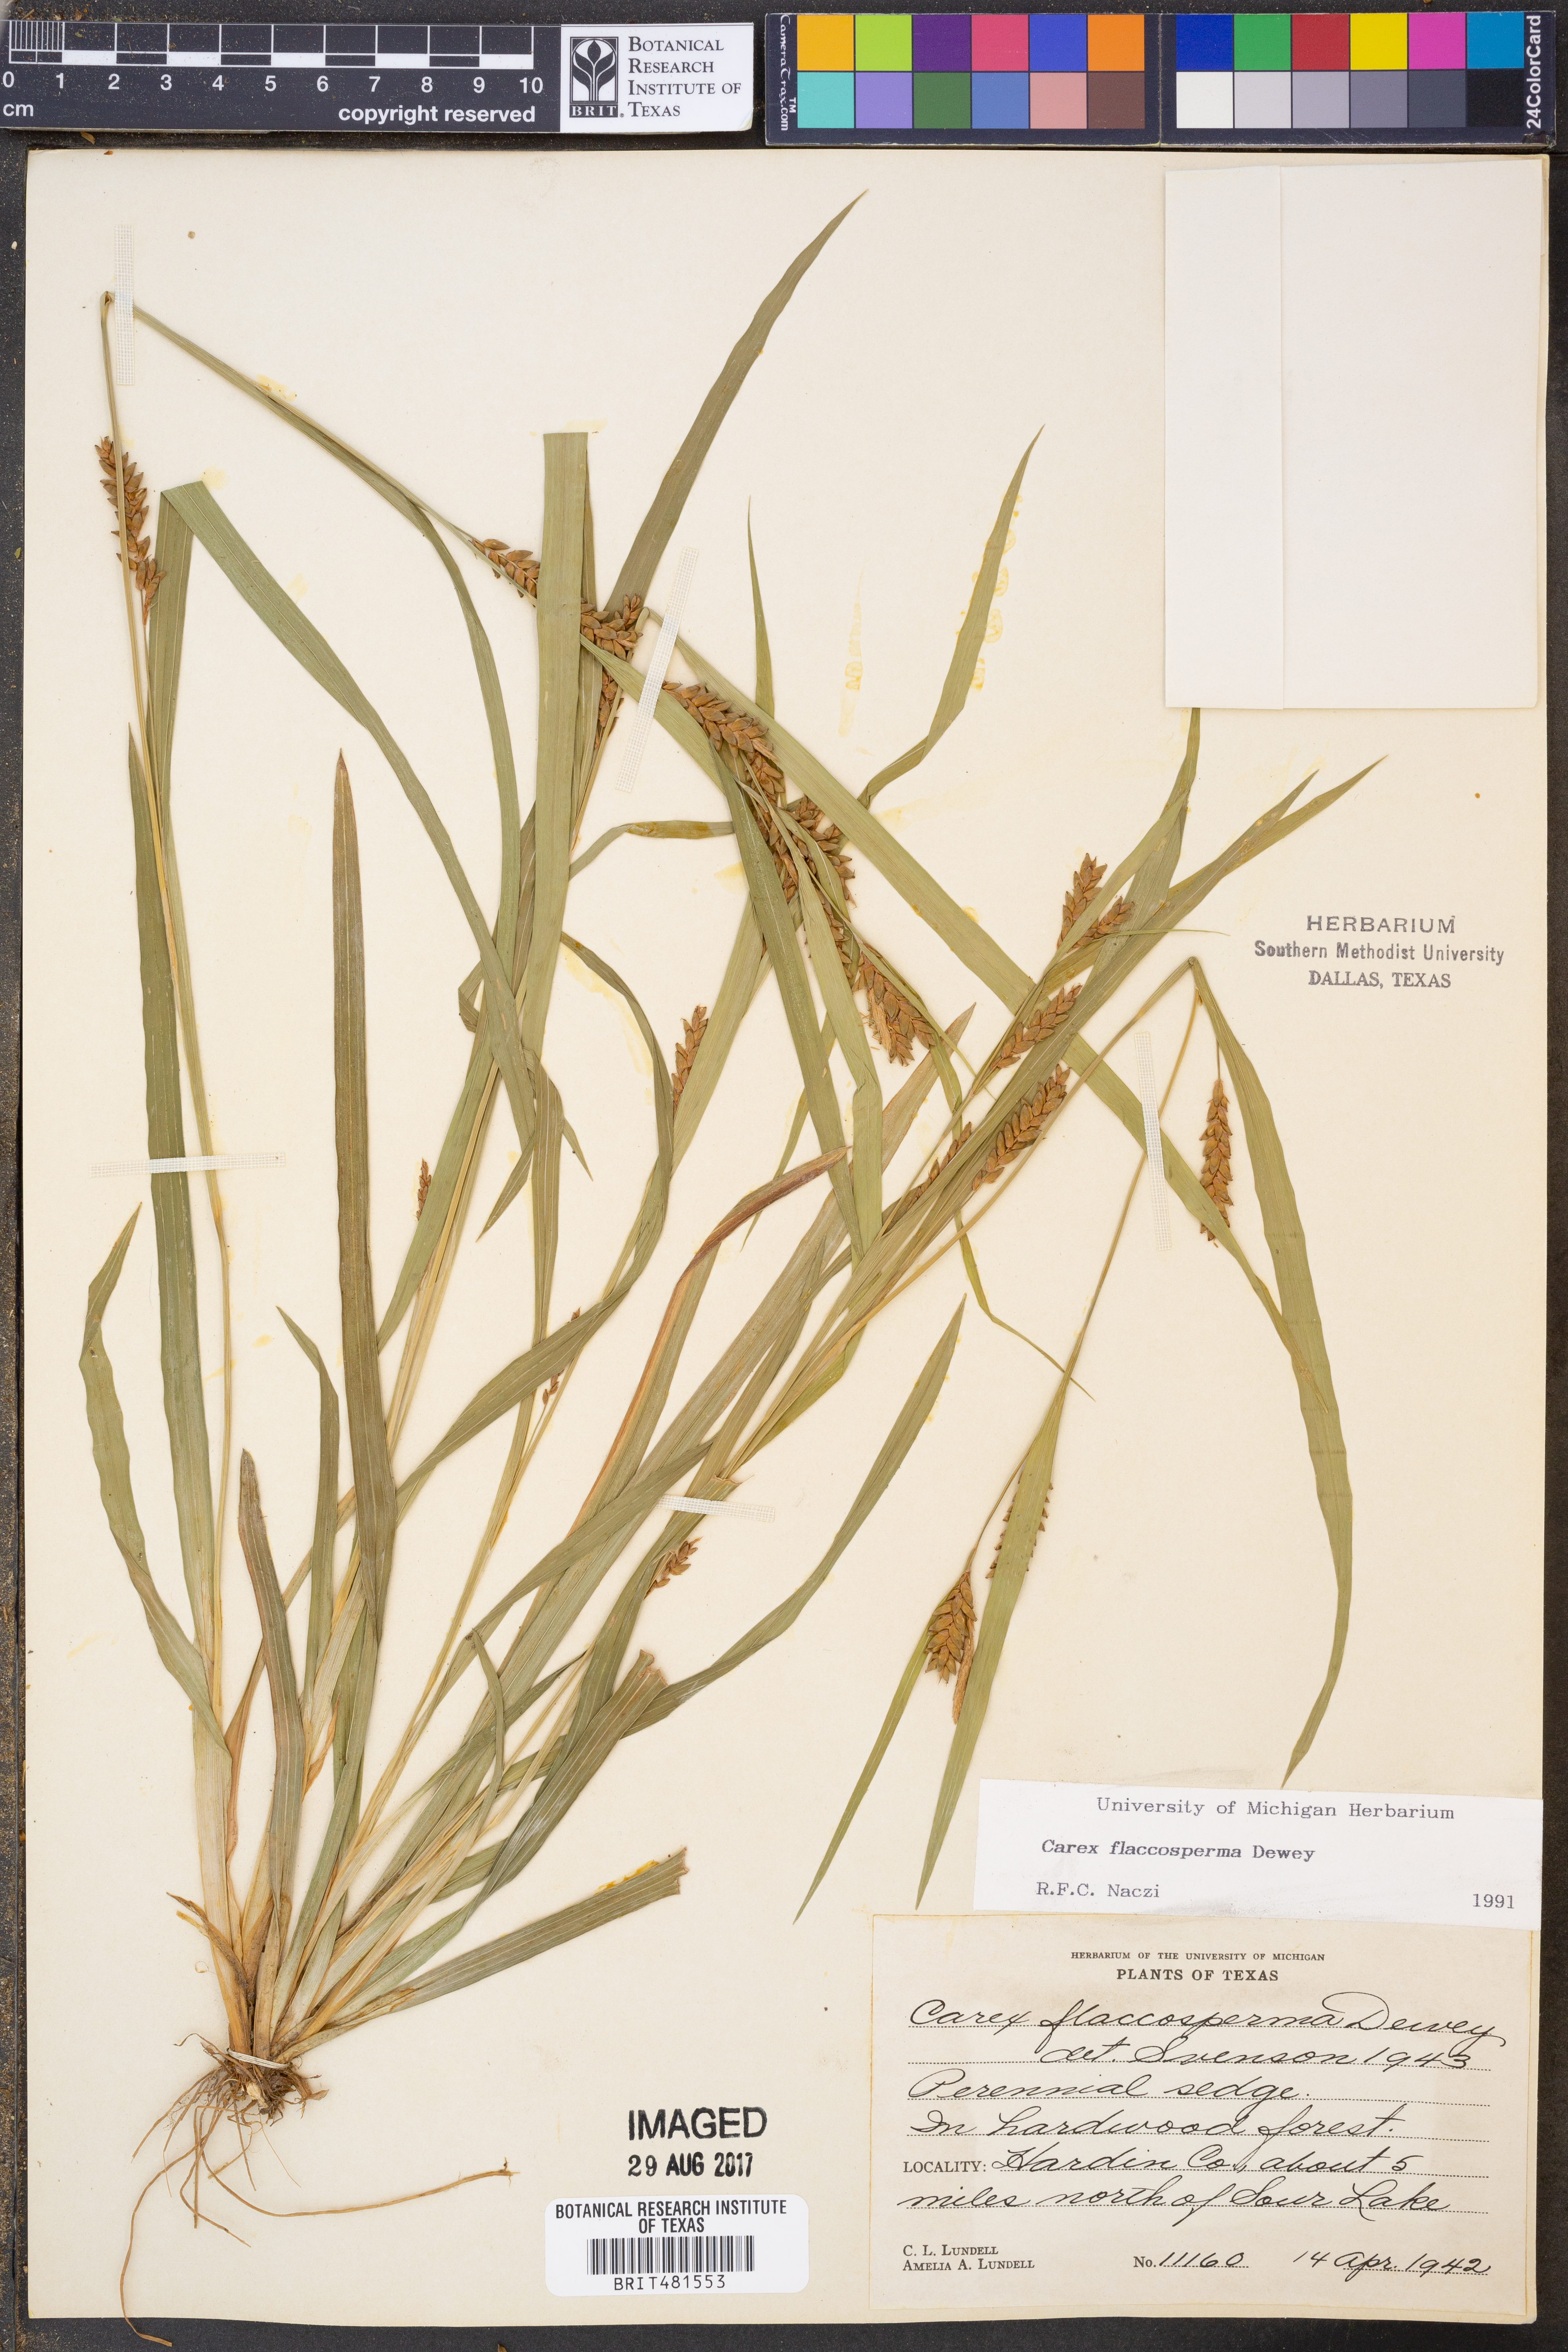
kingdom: Plantae
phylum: Tracheophyta
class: Liliopsida
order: Poales
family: Cyperaceae
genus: Carex
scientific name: Carex flaccosperma
